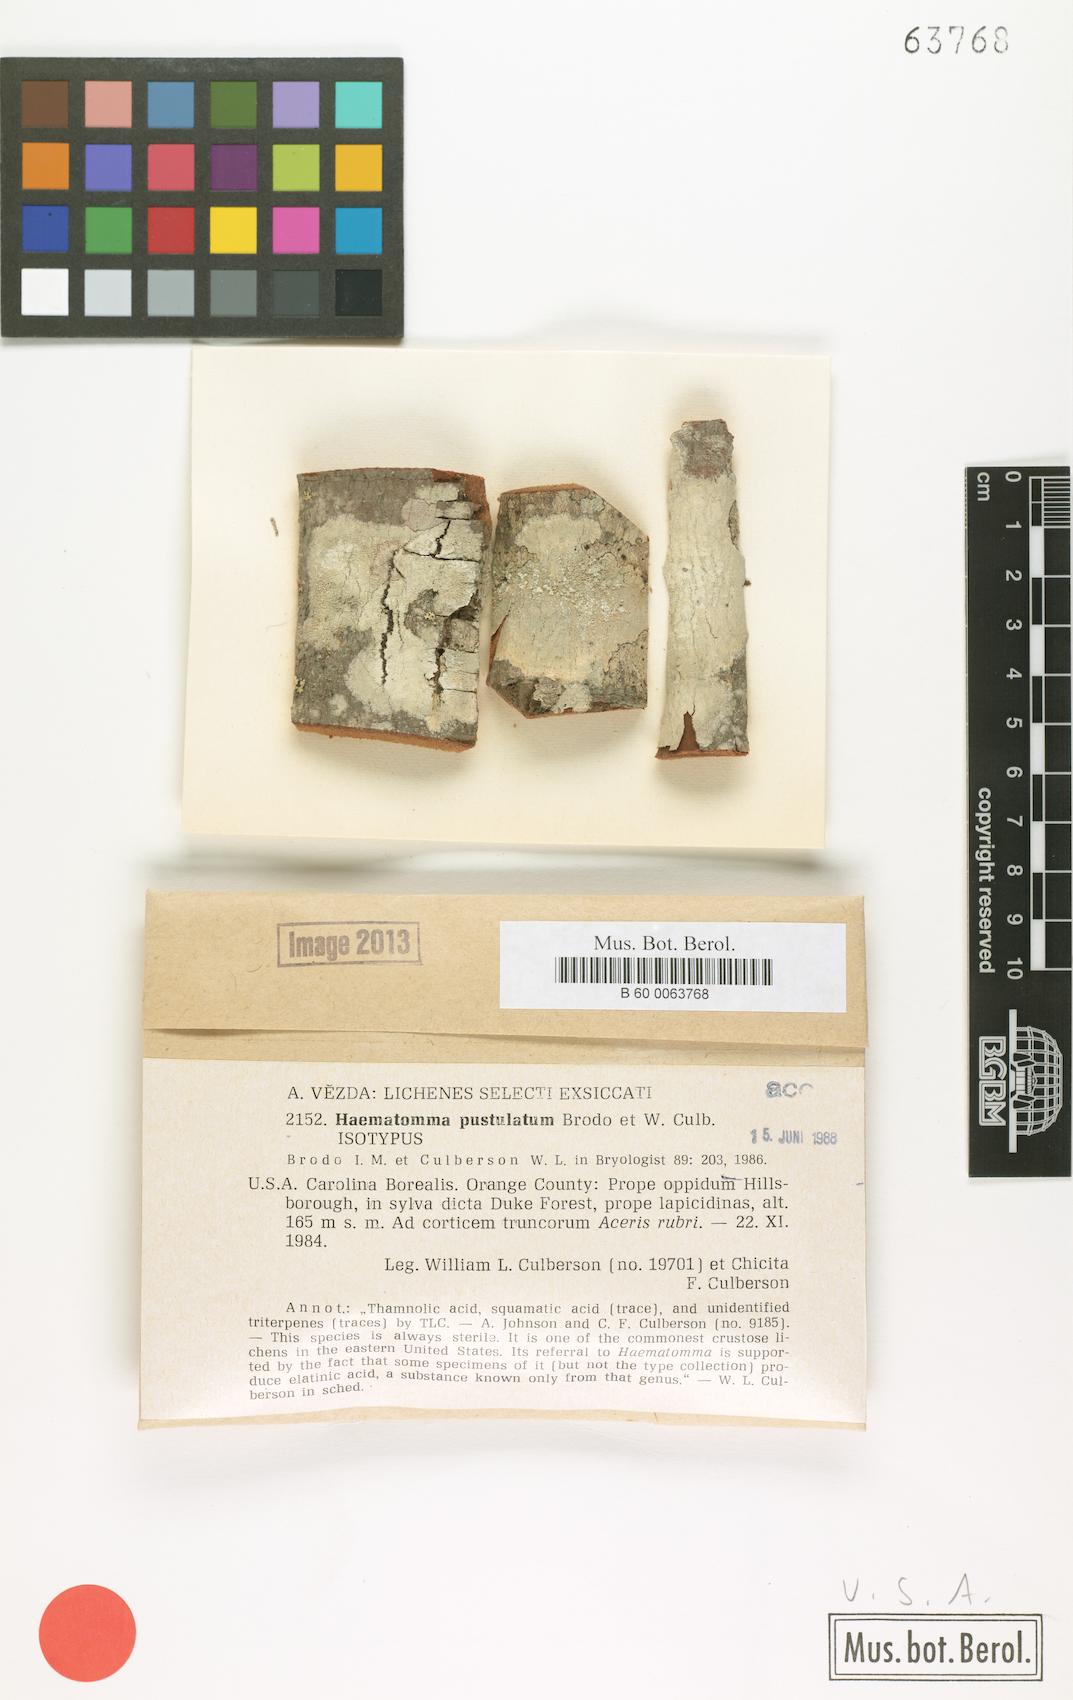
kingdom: Fungi
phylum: Ascomycota
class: Lecanoromycetes
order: Pertusariales
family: Pertusariaceae
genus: Lepra
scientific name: Lepra pustulata
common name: Pustule crust lichen
